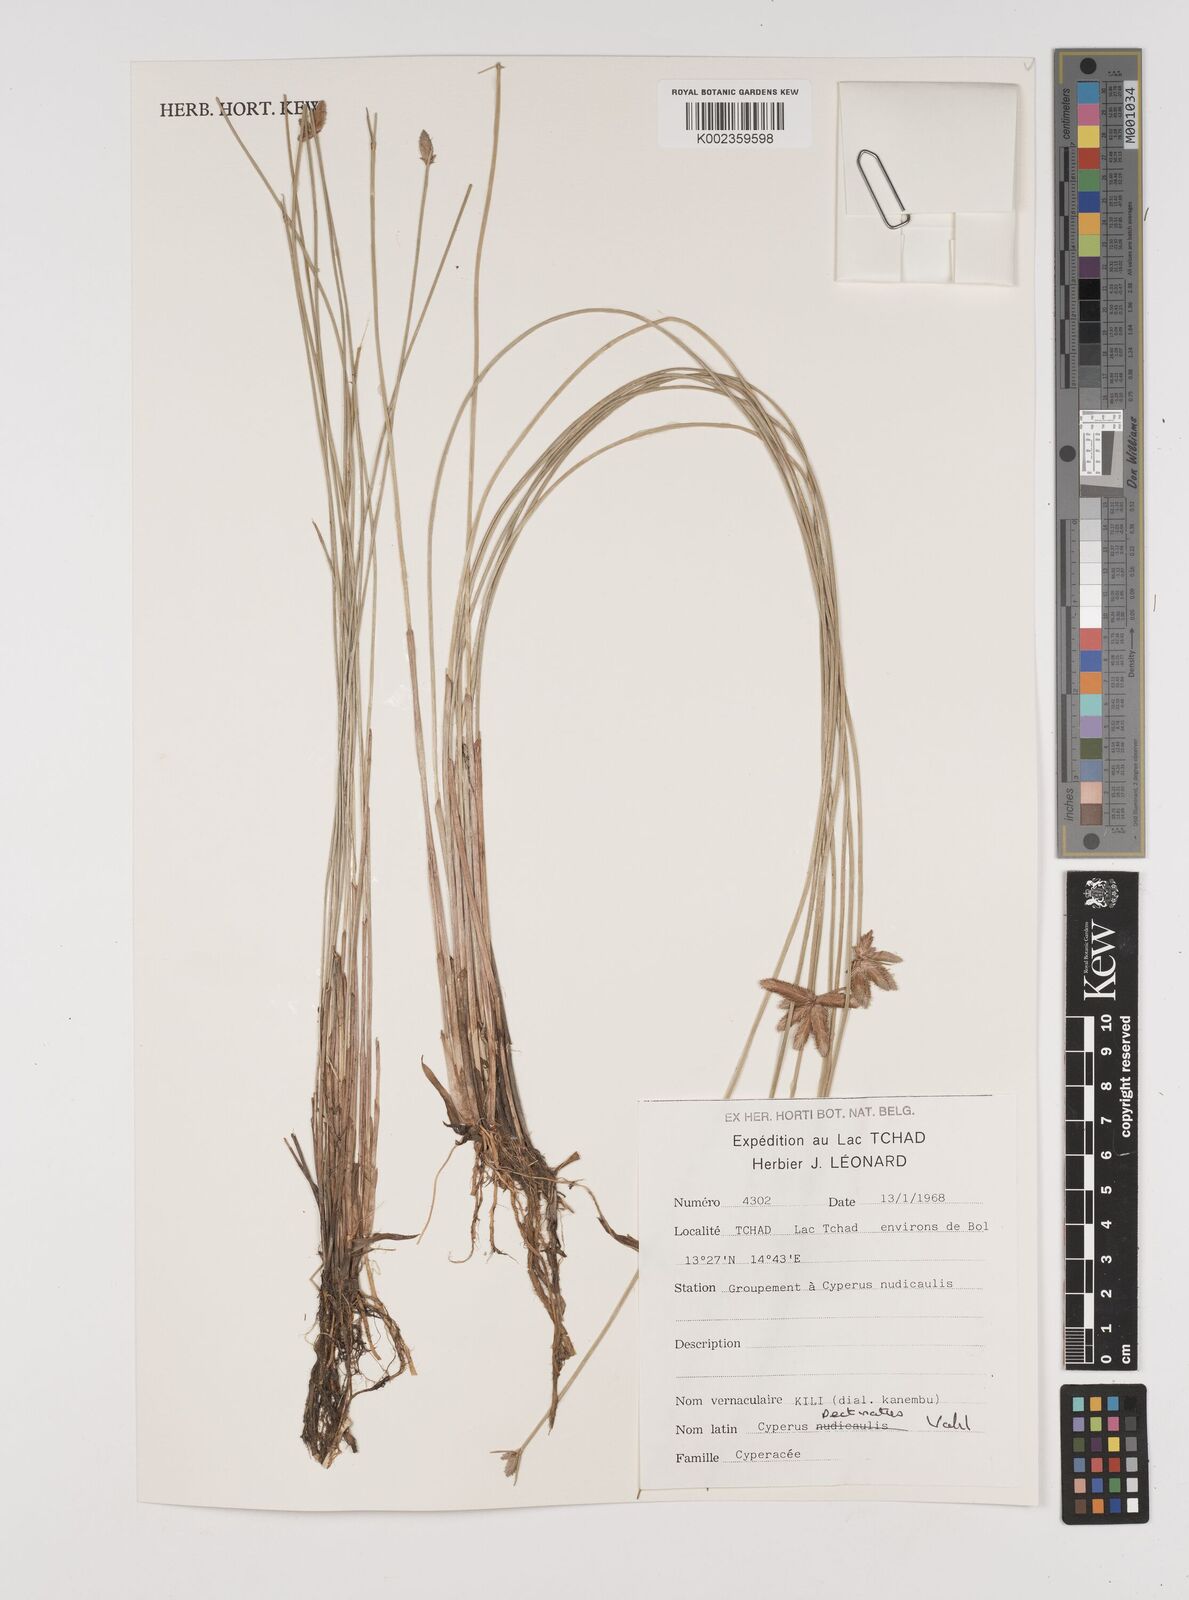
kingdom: Plantae
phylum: Tracheophyta
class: Liliopsida
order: Poales
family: Cyperaceae
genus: Cyperus
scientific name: Cyperus pectinatus
